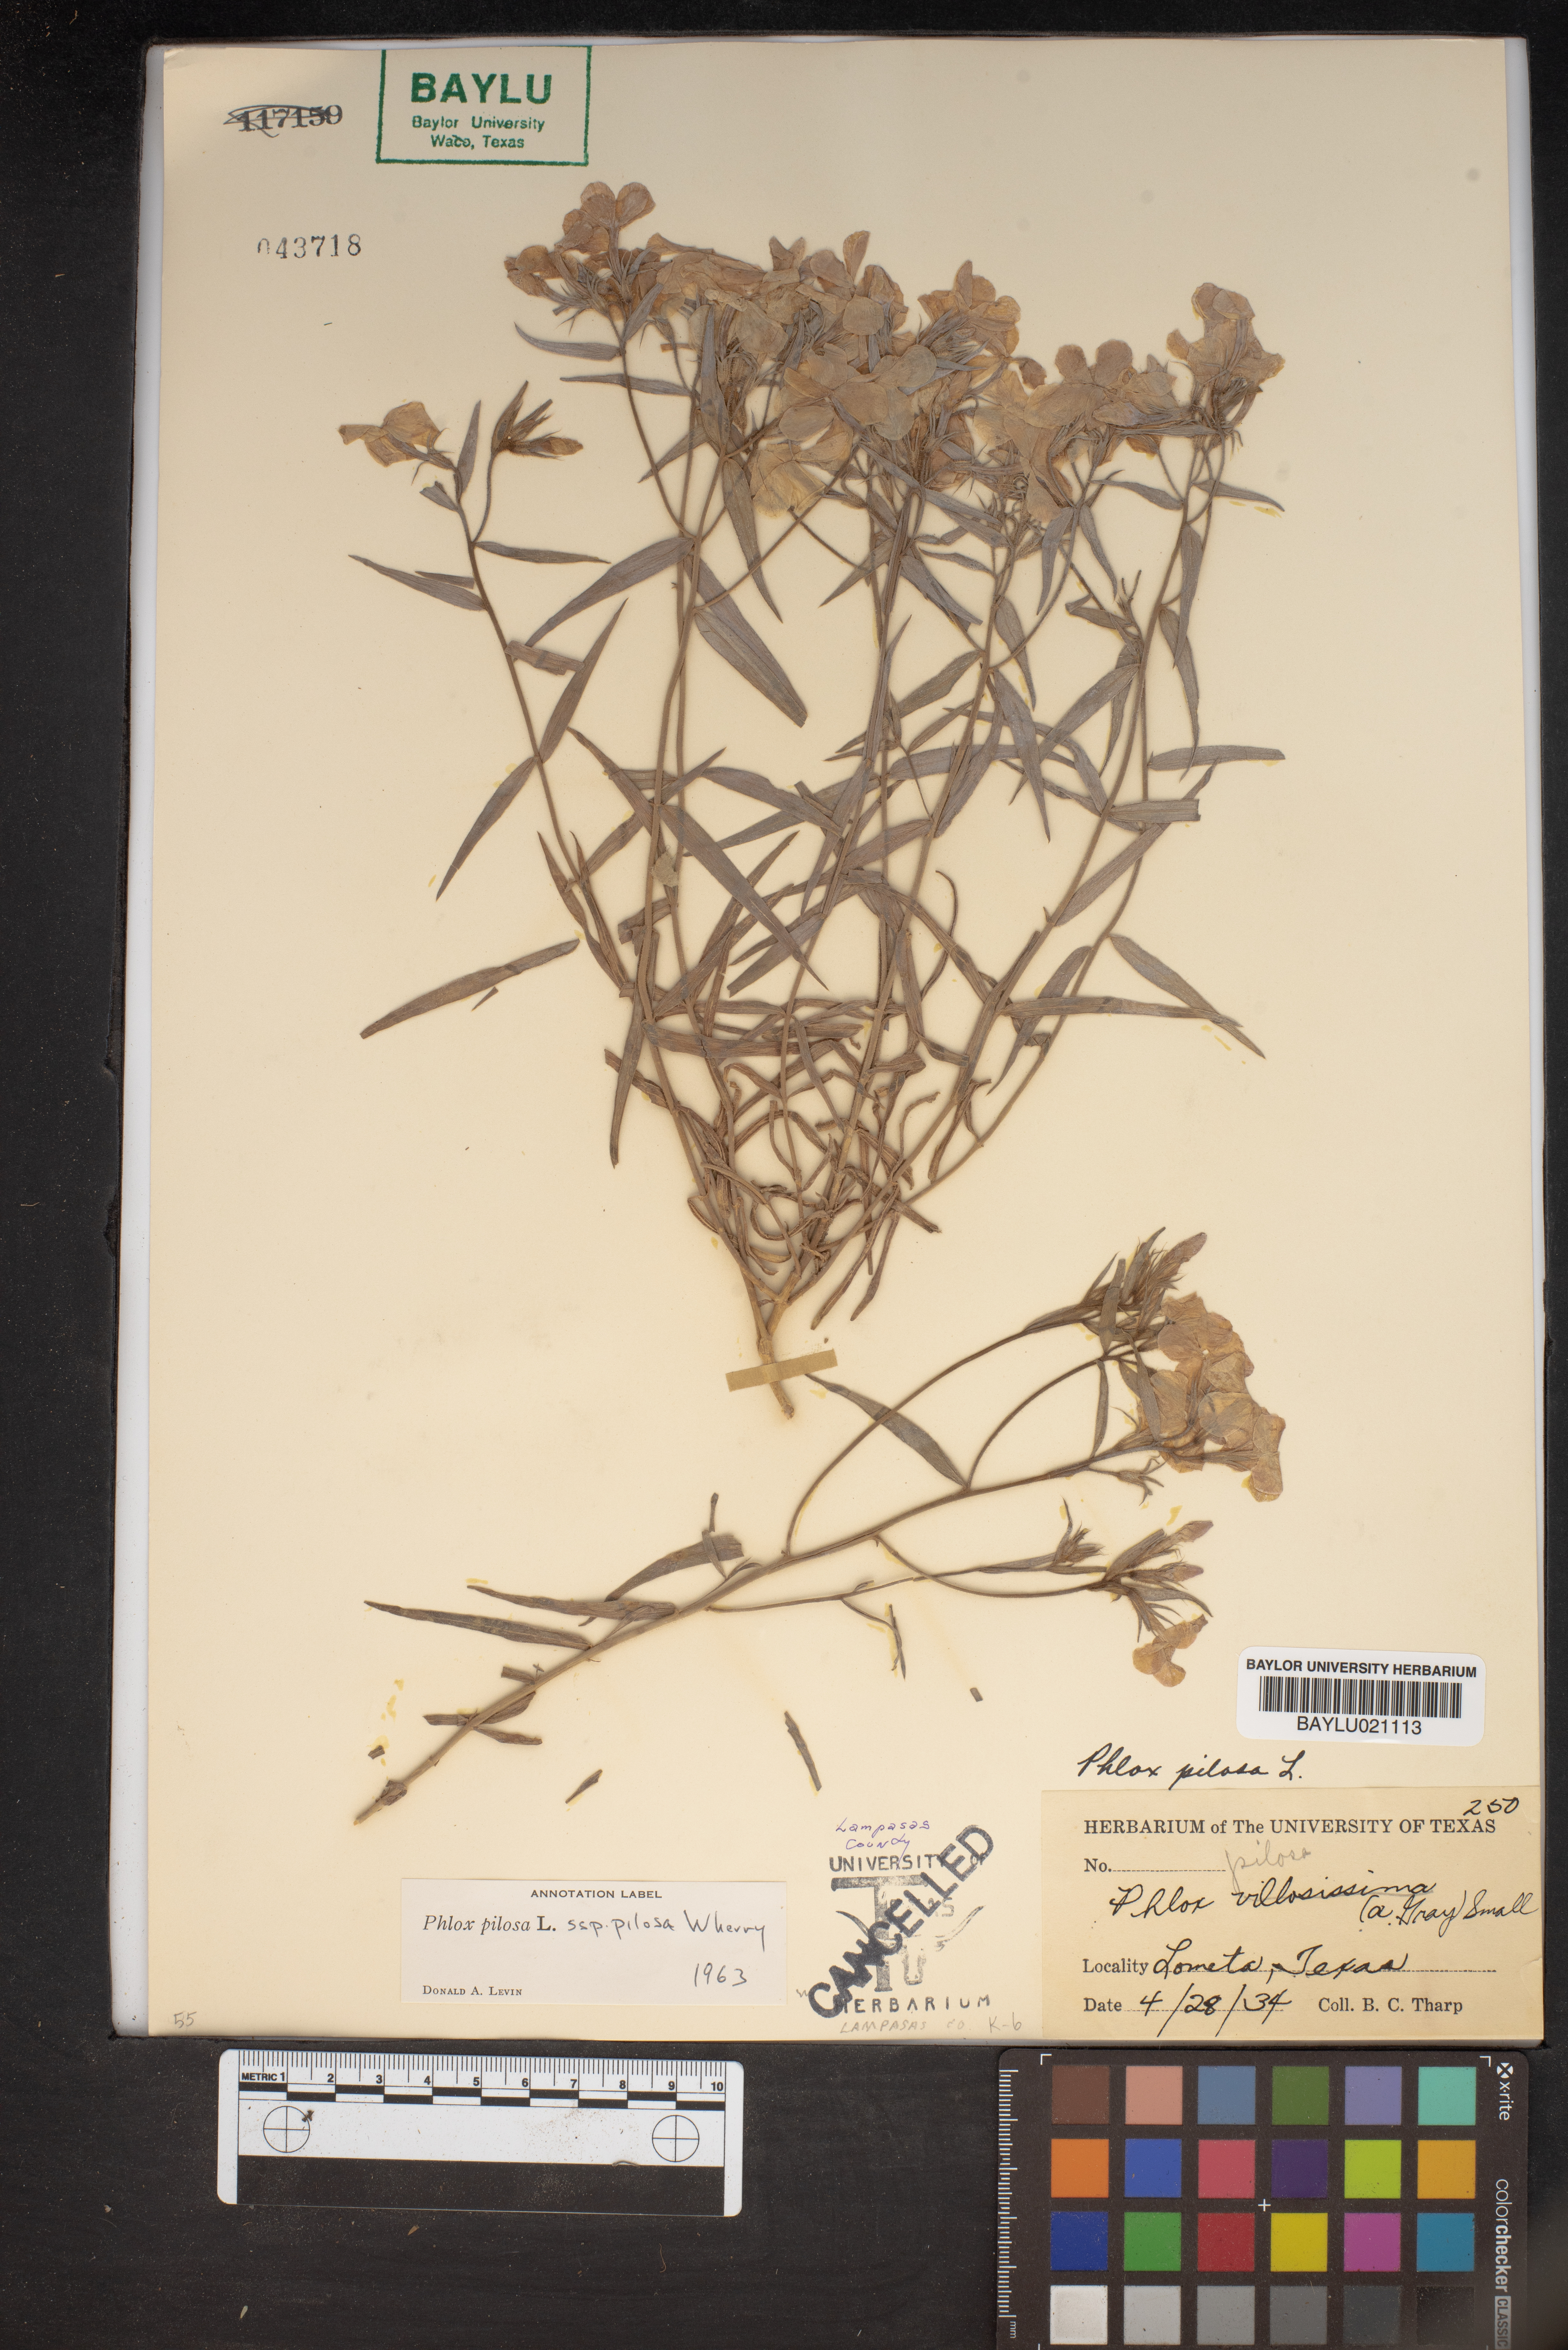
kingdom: Plantae
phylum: Tracheophyta
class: Magnoliopsida
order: Ericales
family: Polemoniaceae
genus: Phlox
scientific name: Phlox pilosa
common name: Prairie phlox
